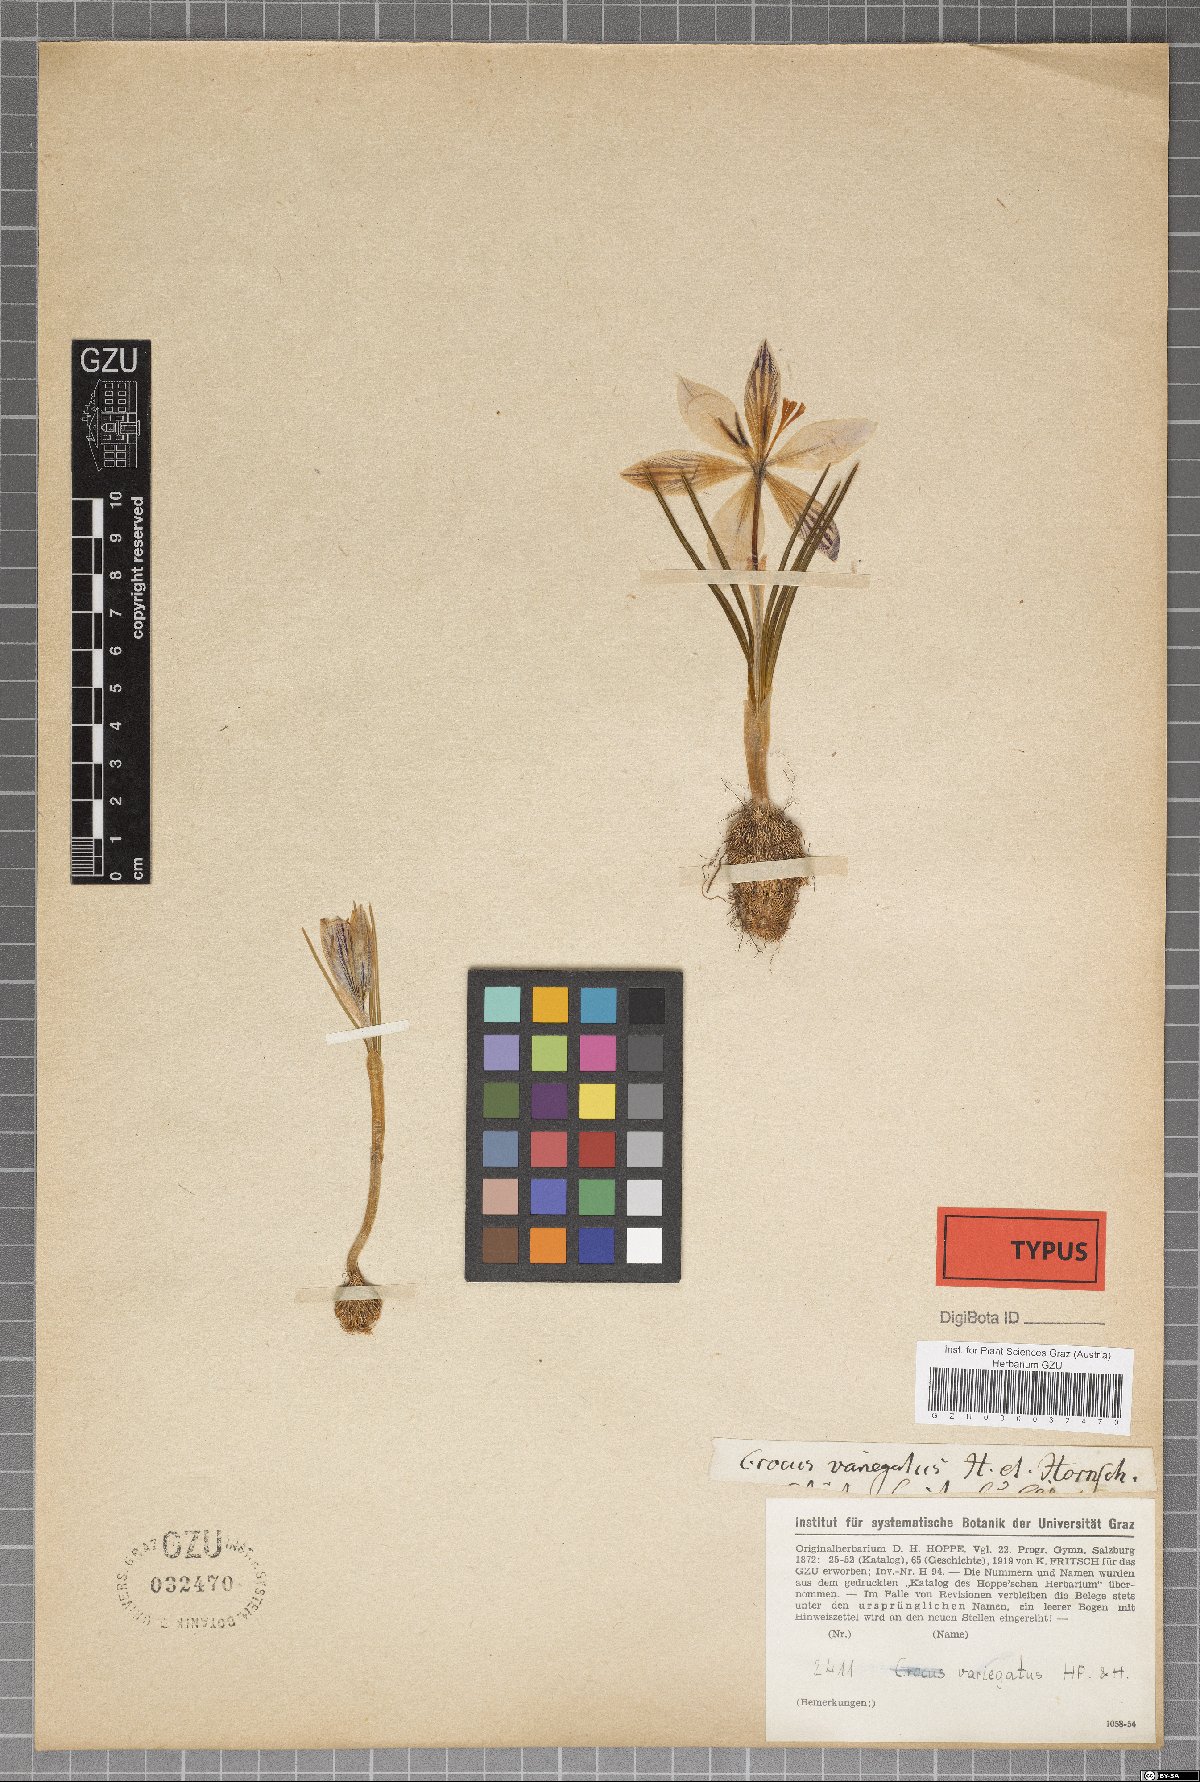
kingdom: Plantae
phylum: Tracheophyta
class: Liliopsida
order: Asparagales
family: Iridaceae
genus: Crocus
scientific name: Crocus variegatus
